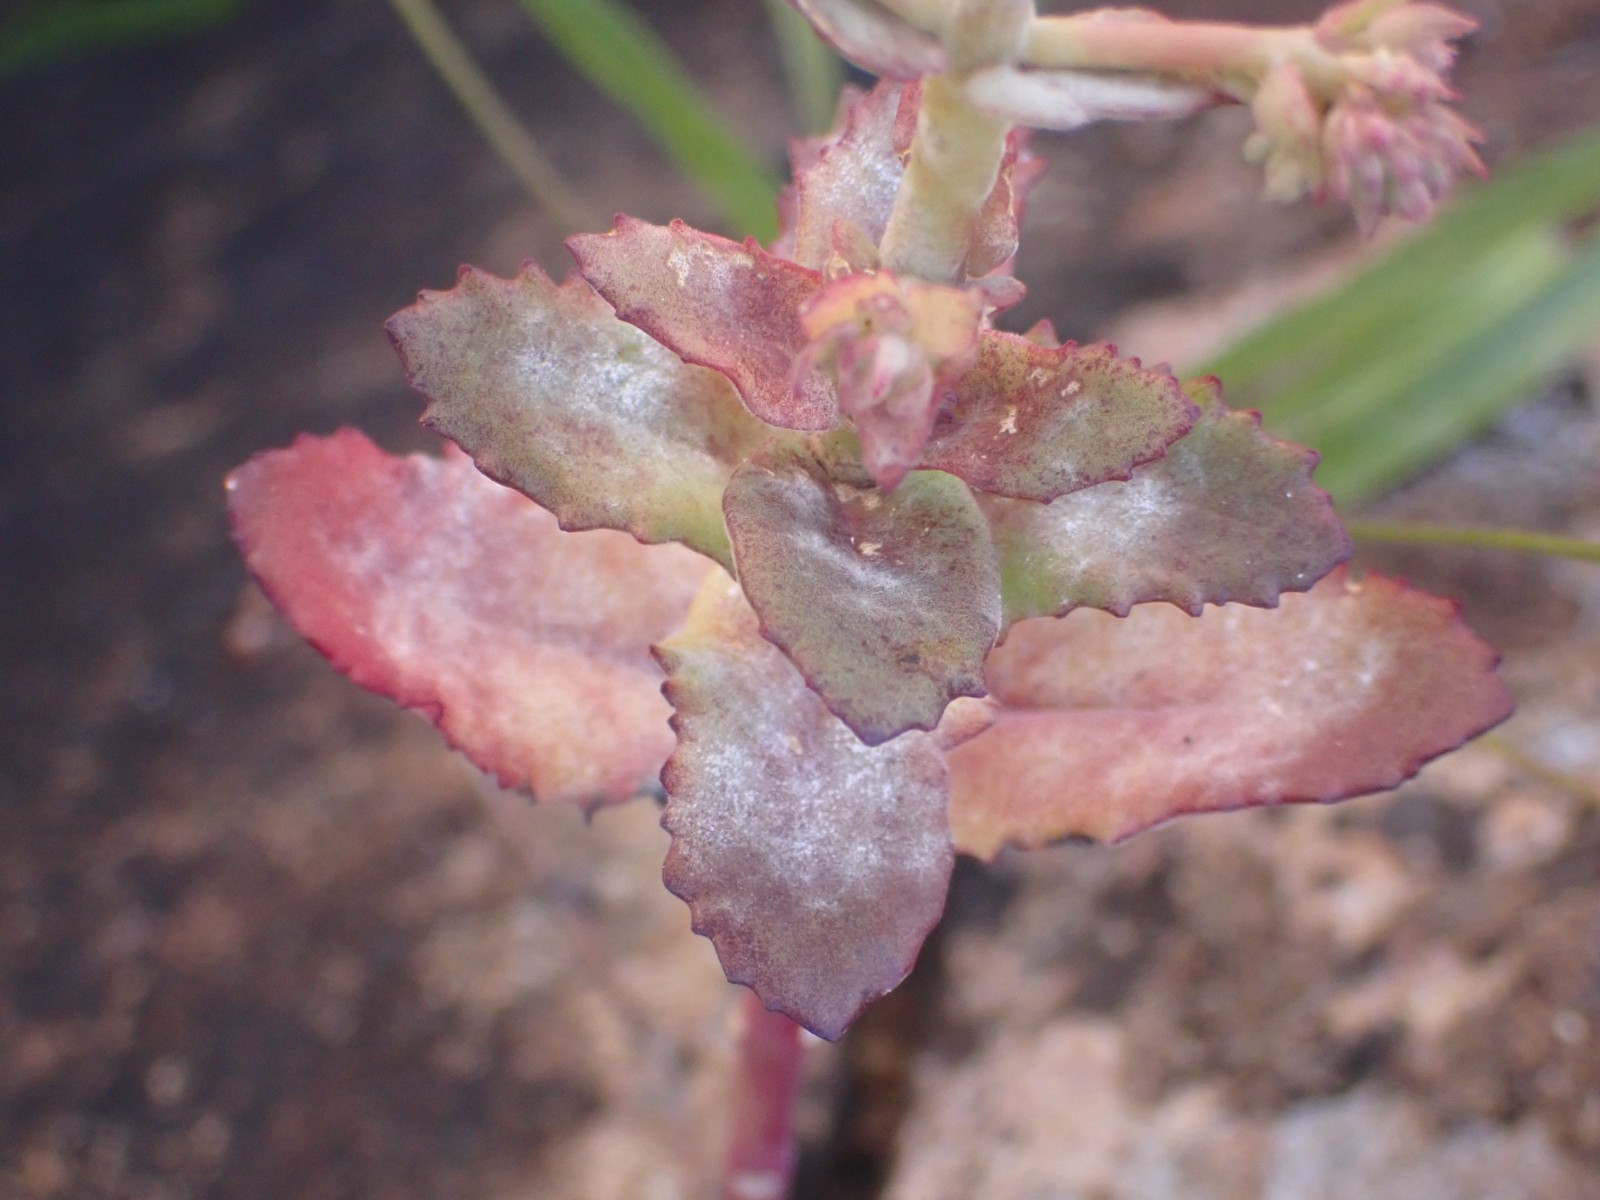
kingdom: Fungi
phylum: Ascomycota
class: Leotiomycetes
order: Helotiales
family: Erysiphaceae
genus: Erysiphe
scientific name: Erysiphe sedi
